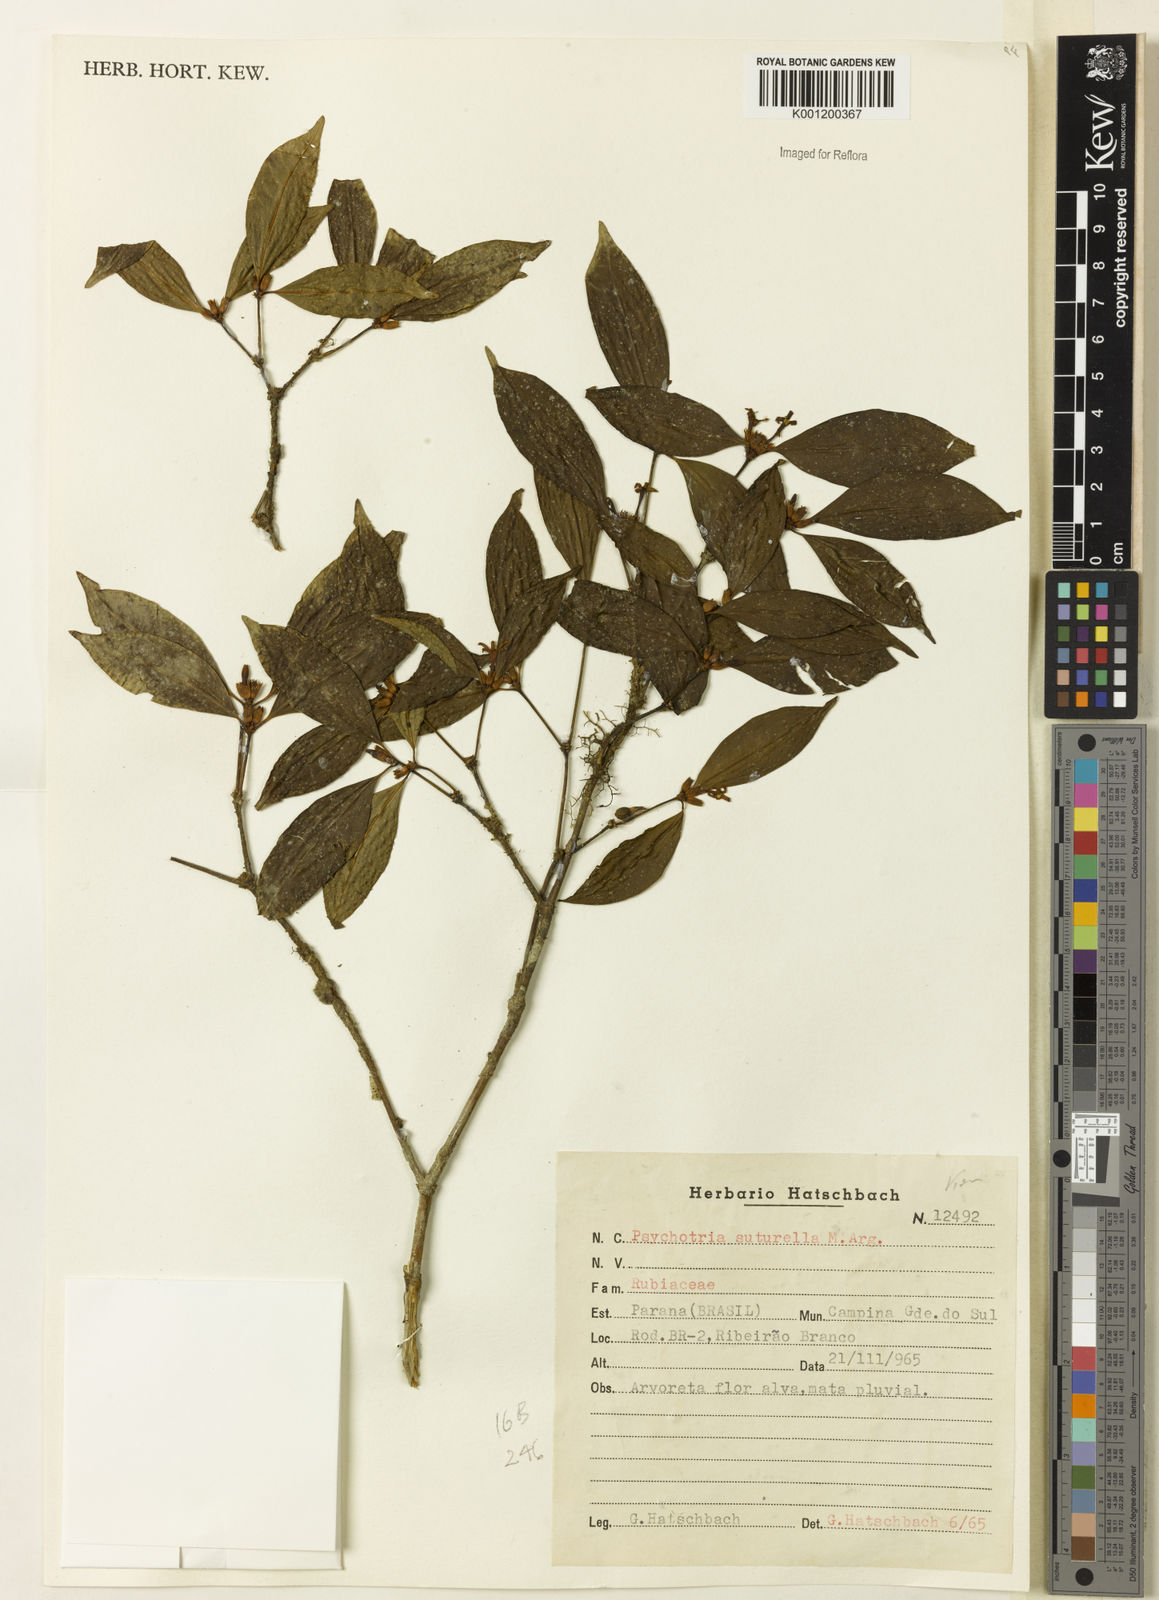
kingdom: Plantae
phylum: Tracheophyta
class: Magnoliopsida
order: Gentianales
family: Rubiaceae
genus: Psychotria
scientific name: Psychotria
